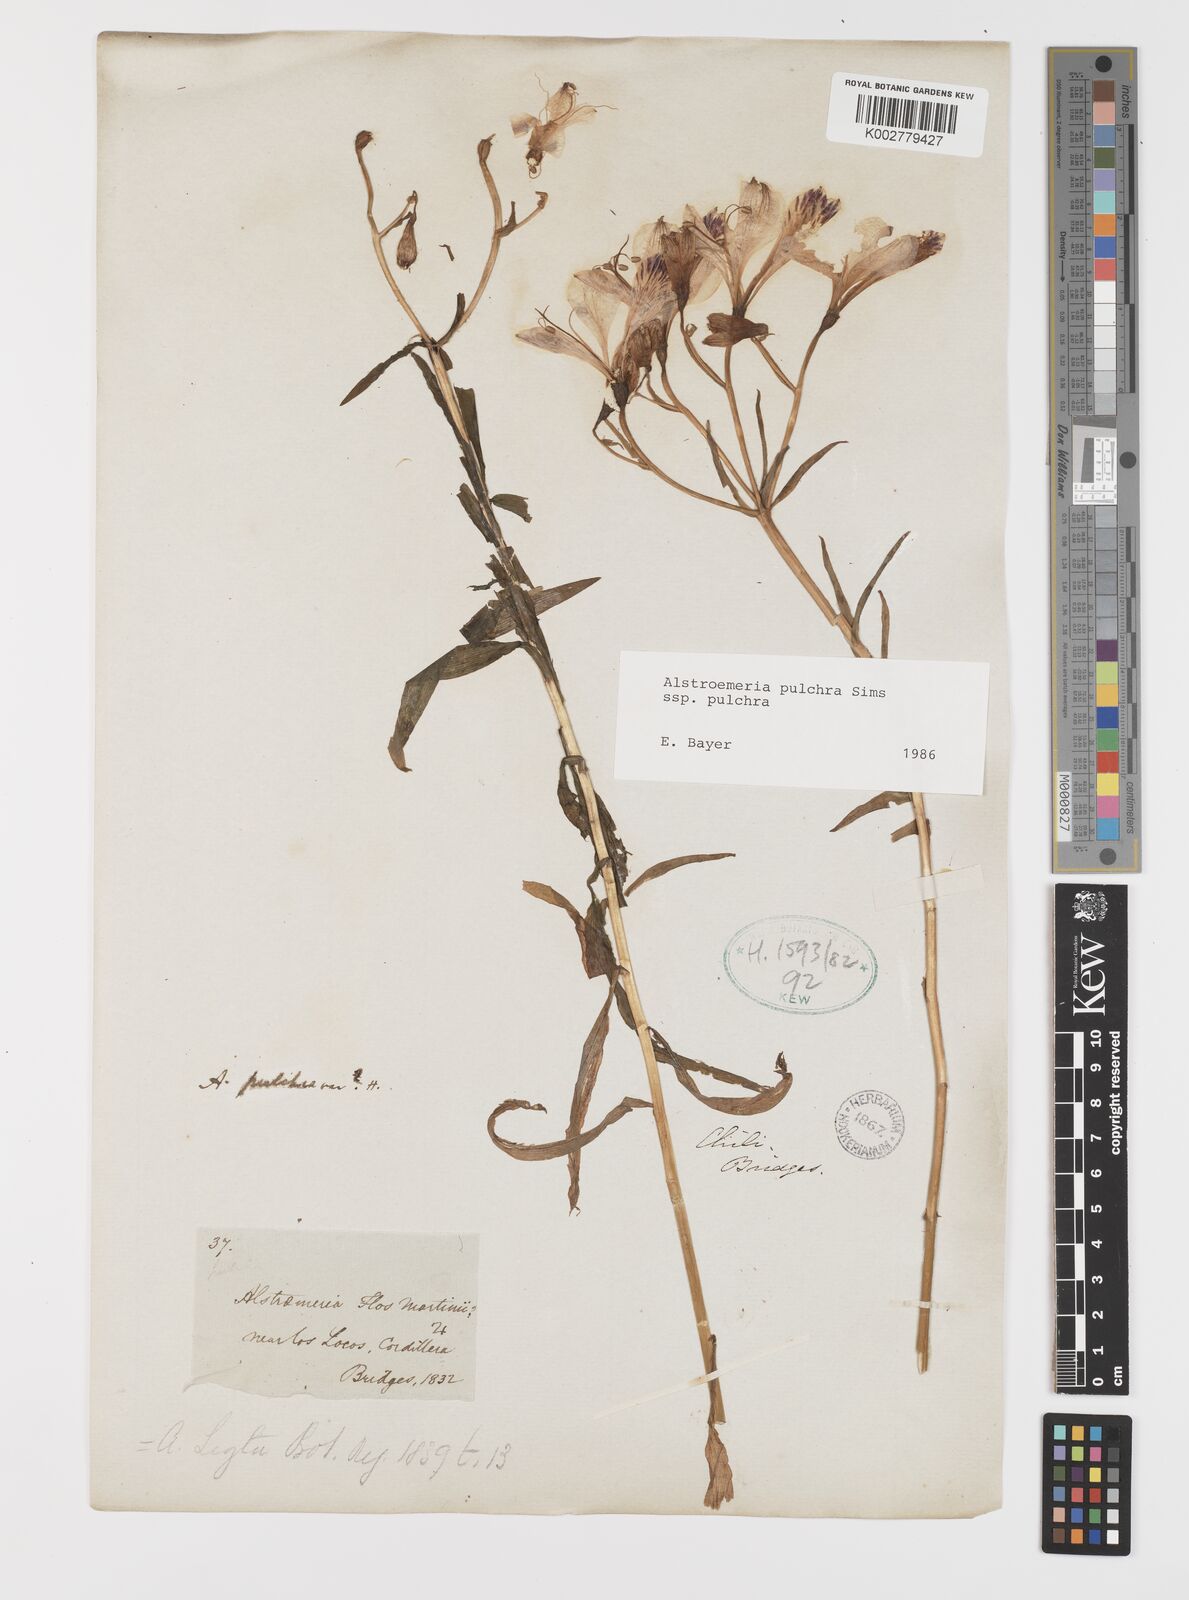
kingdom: Plantae
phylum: Tracheophyta
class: Liliopsida
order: Liliales
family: Alstroemeriaceae
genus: Alstroemeria
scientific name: Alstroemeria pulchra
